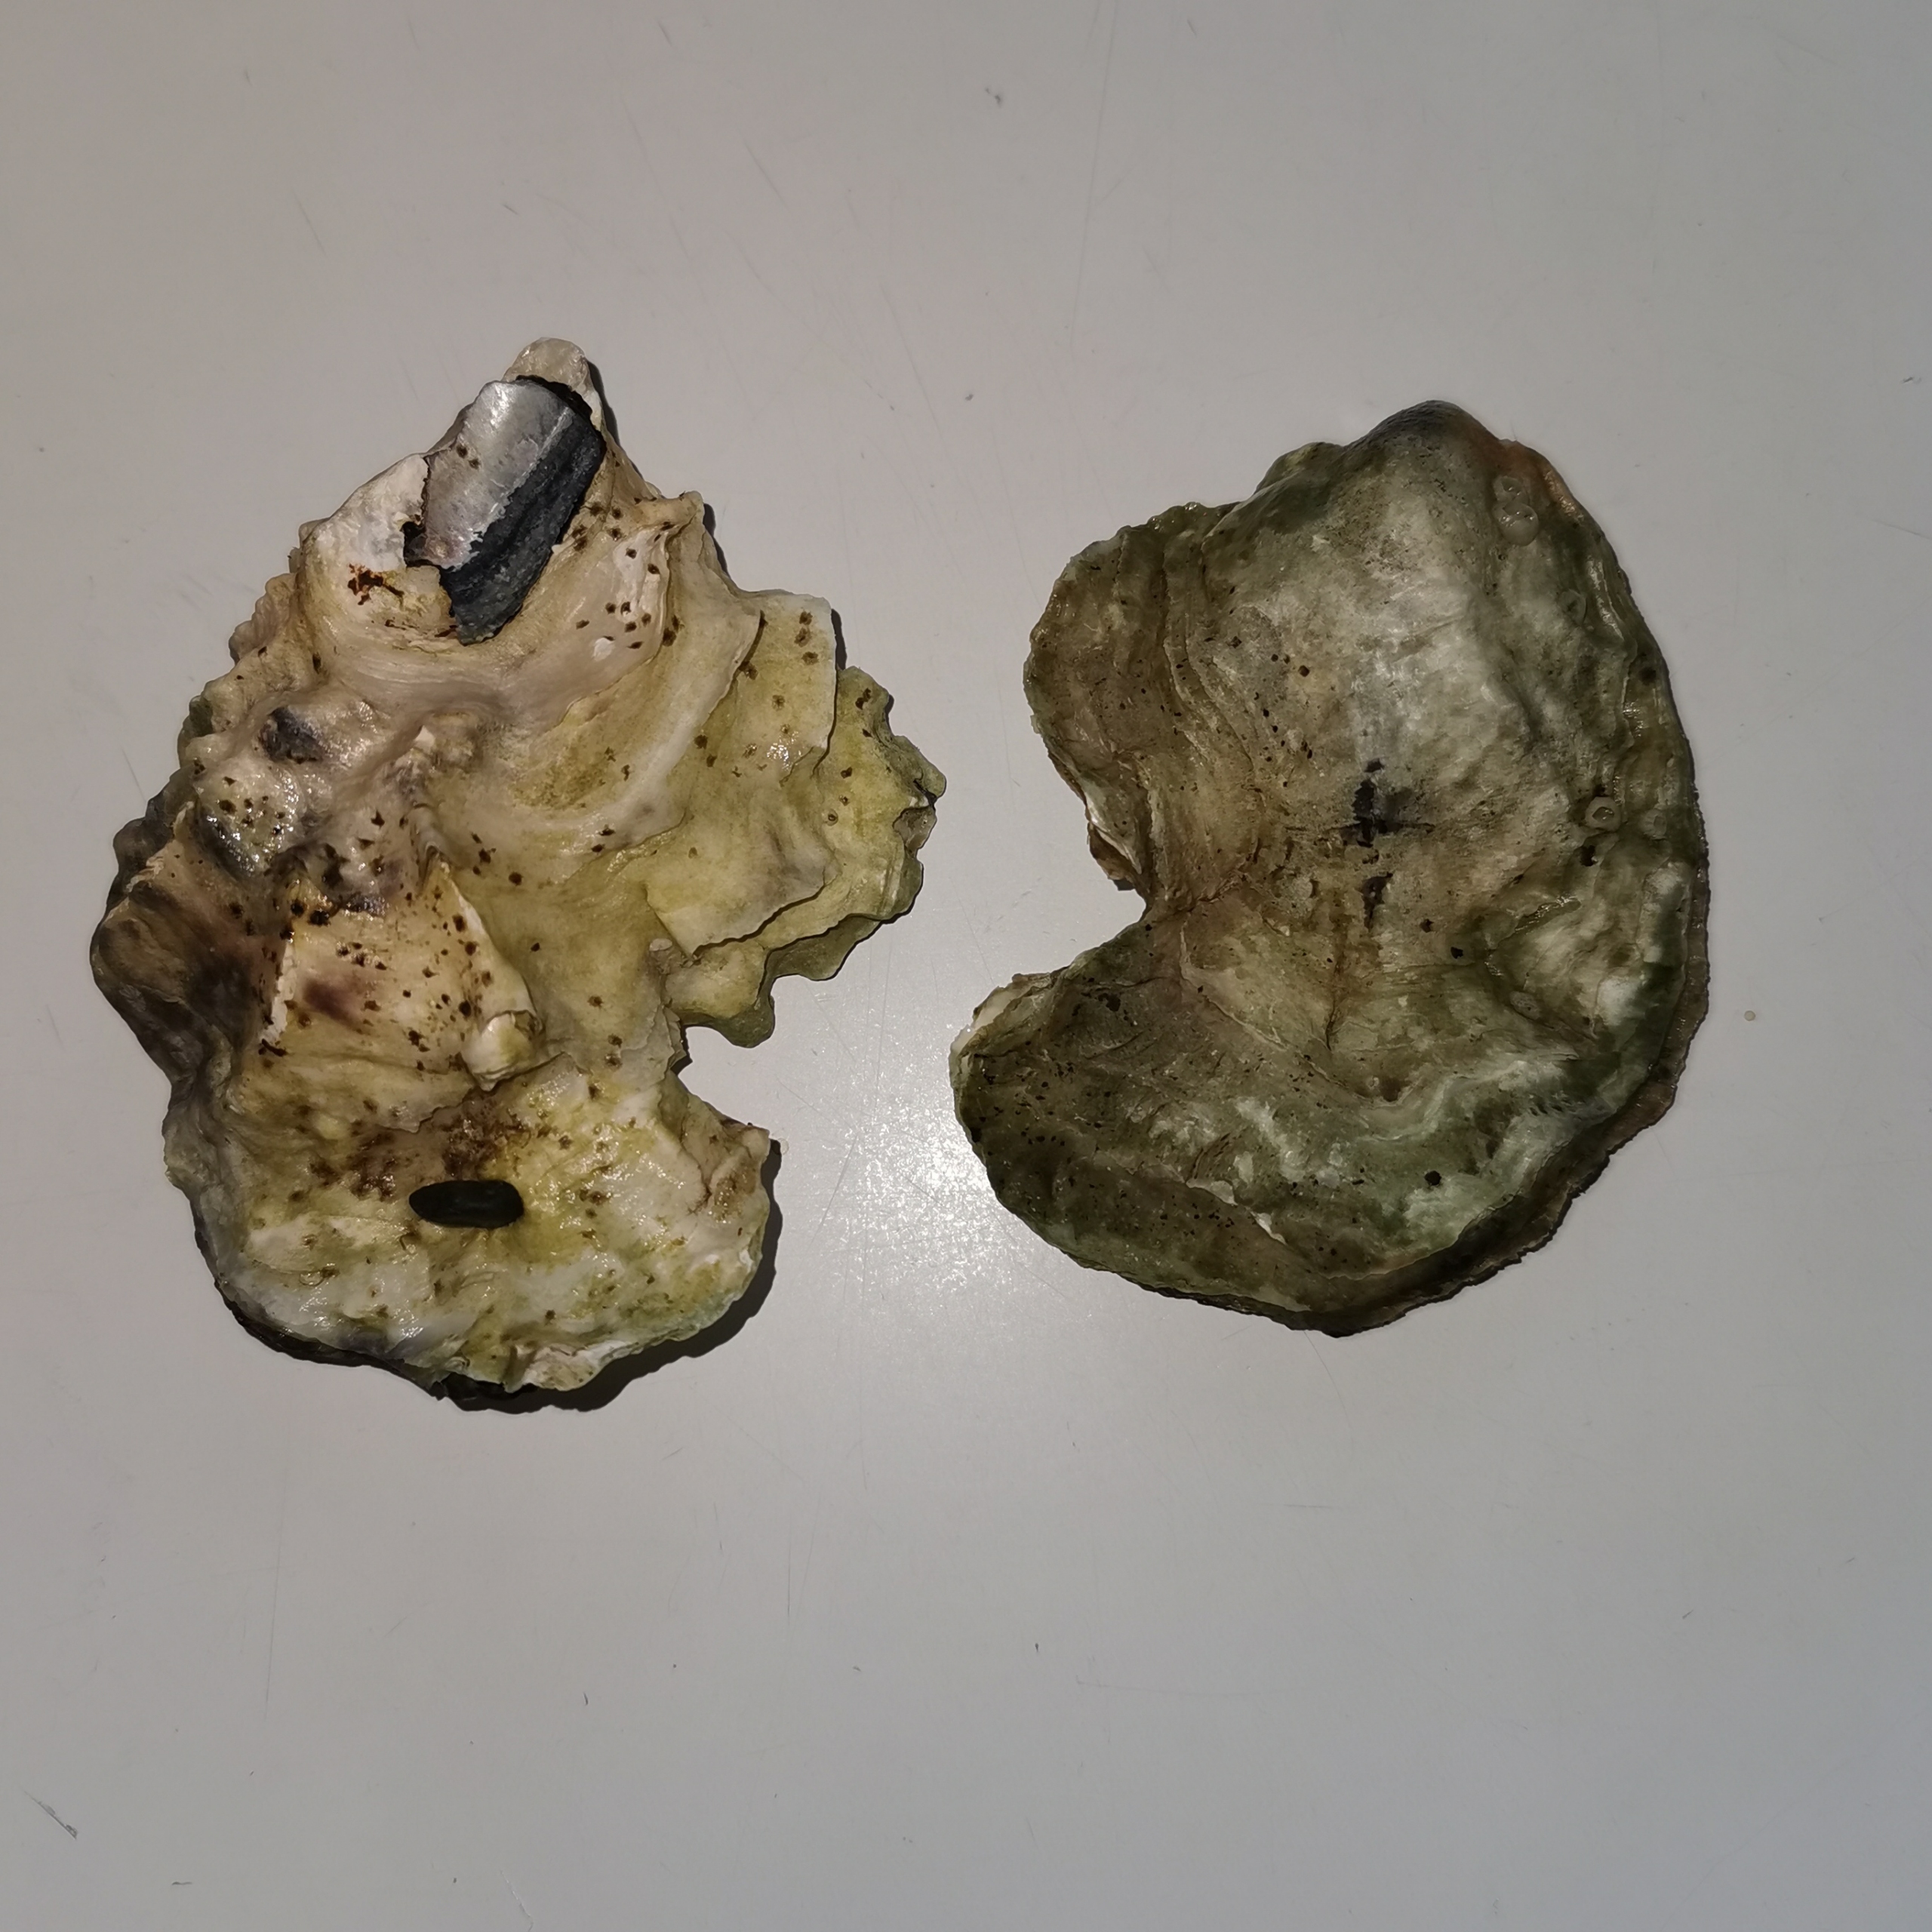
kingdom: Animalia
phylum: Mollusca
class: Bivalvia
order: Ostreida
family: Ostreidae
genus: Magallana
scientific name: Magallana gigas
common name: Stillehavsøsters
